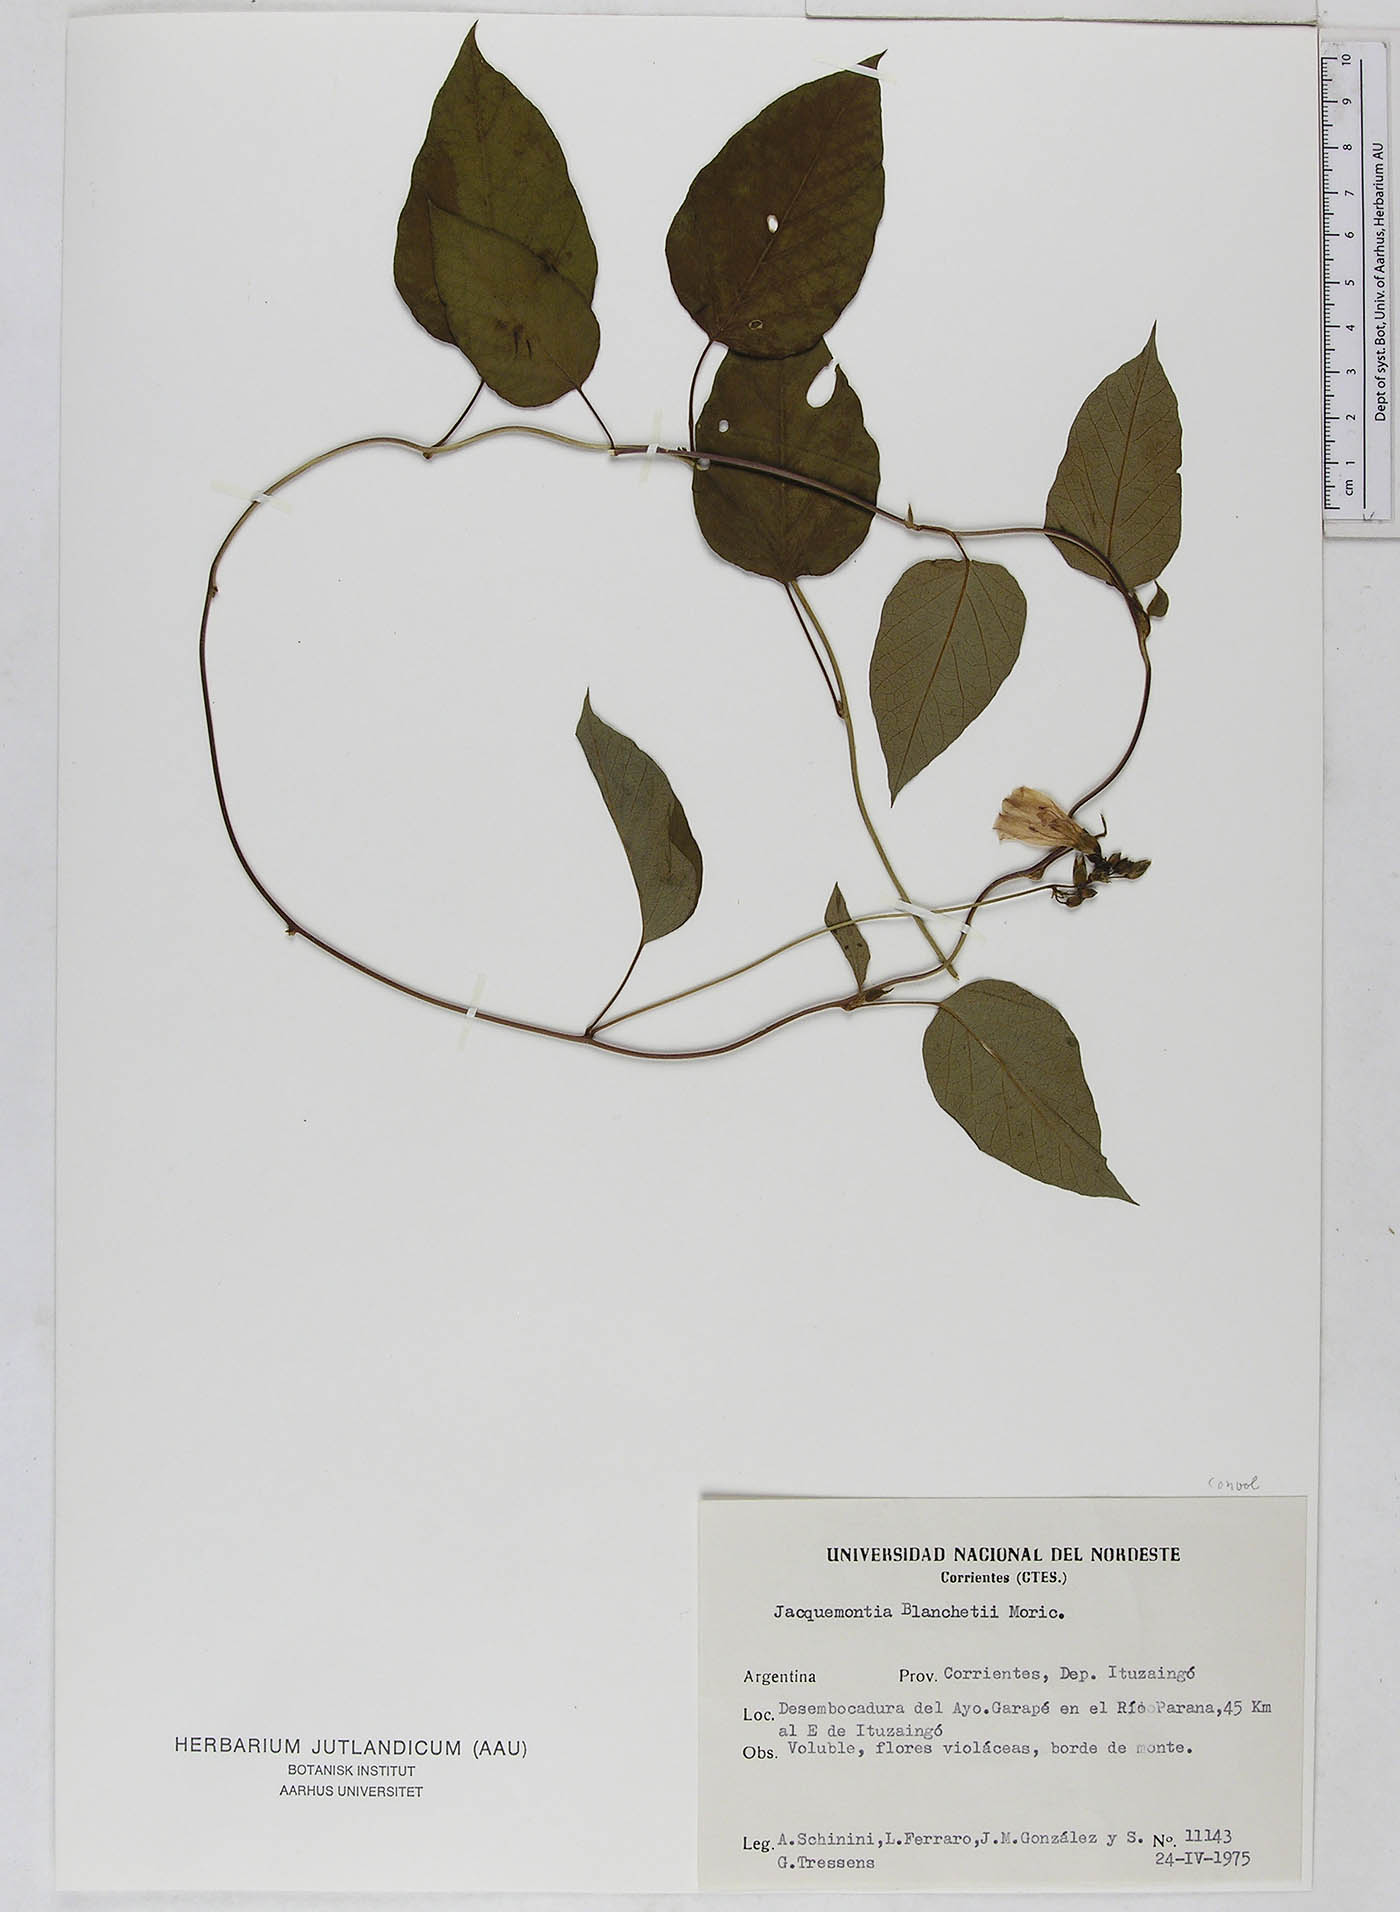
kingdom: Plantae
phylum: Tracheophyta
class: Magnoliopsida
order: Solanales
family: Convolvulaceae
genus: Jacquemontia
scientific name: Jacquemontia blanchetii
